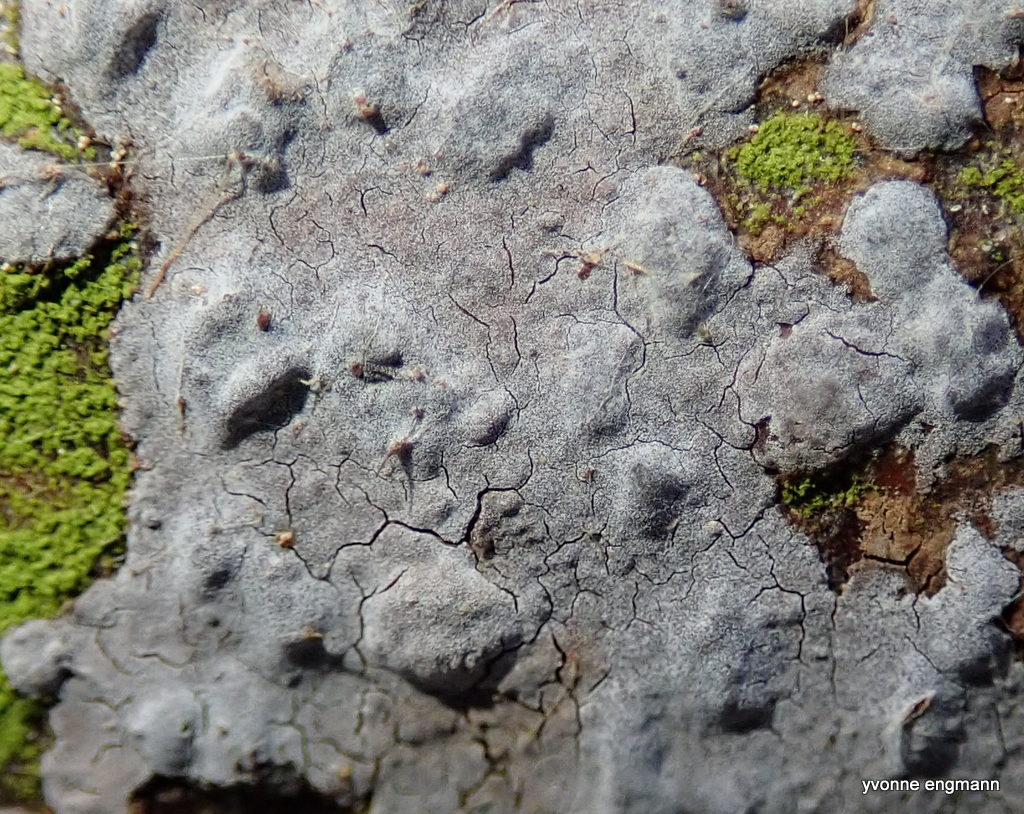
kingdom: Fungi
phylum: Basidiomycota
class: Agaricomycetes
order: Russulales
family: Peniophoraceae
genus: Peniophora
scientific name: Peniophora
